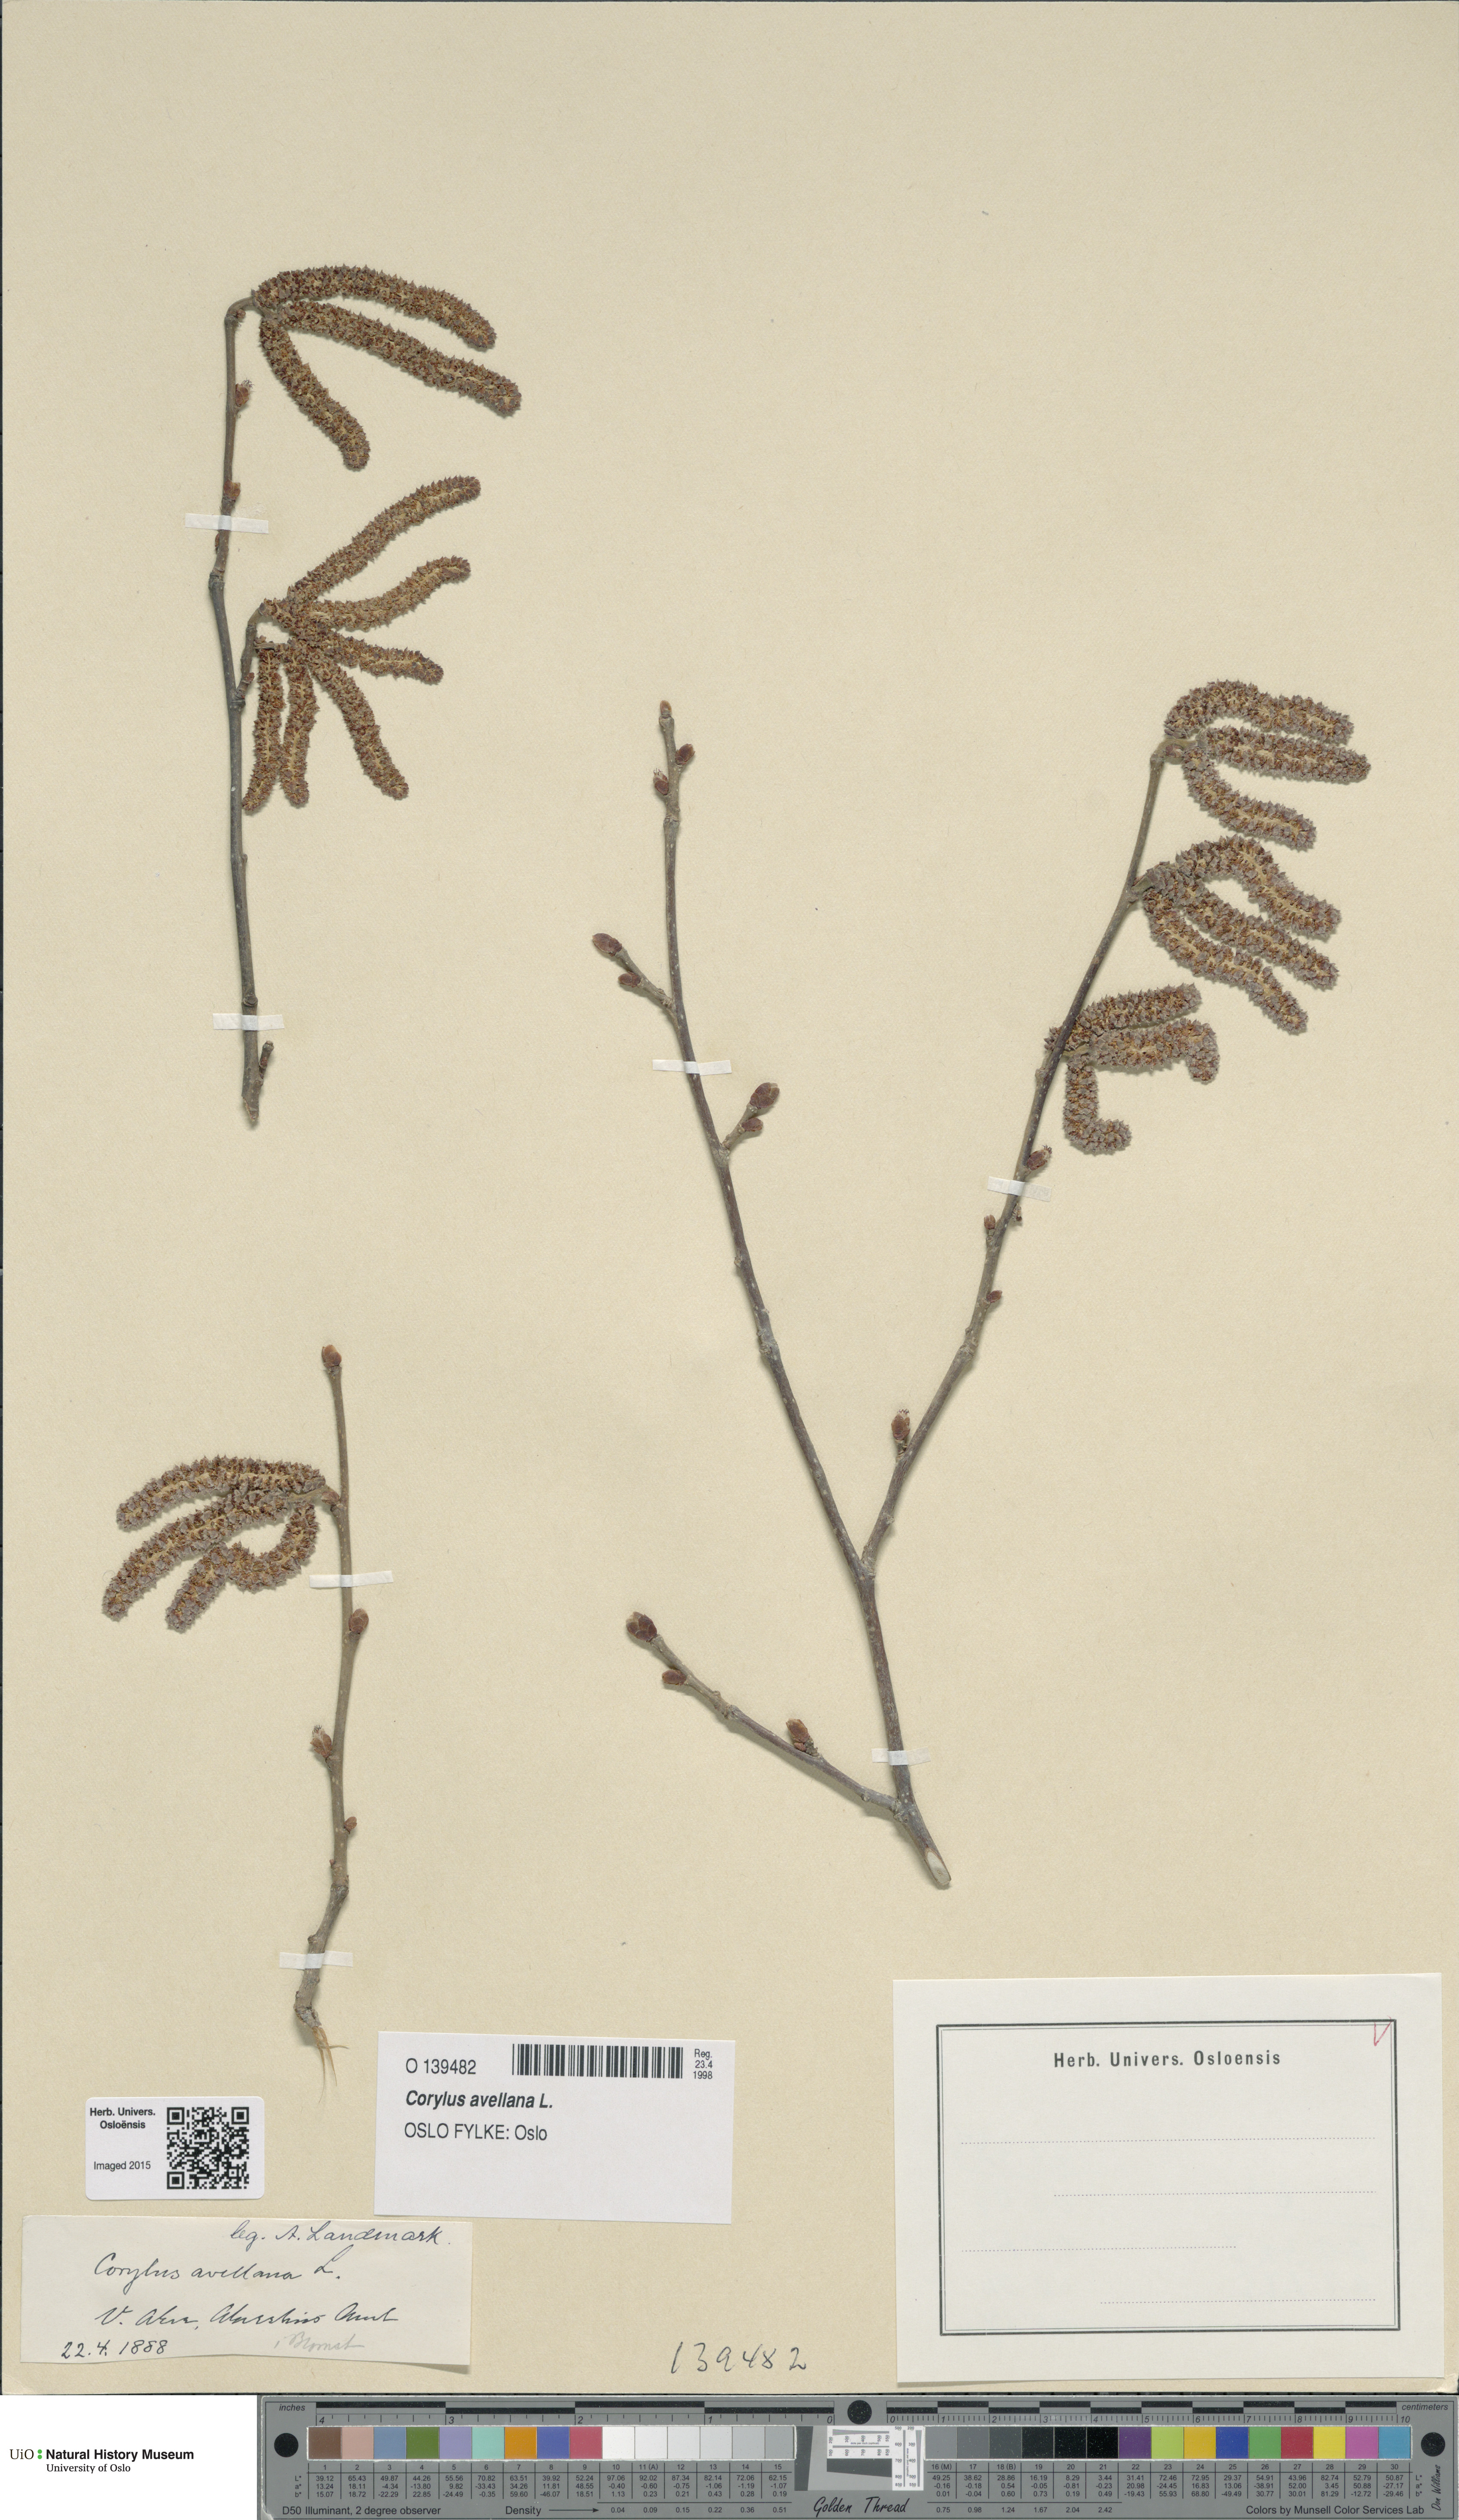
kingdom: Plantae
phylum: Tracheophyta
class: Magnoliopsida
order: Fagales
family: Betulaceae
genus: Corylus
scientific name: Corylus avellana
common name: European hazel
